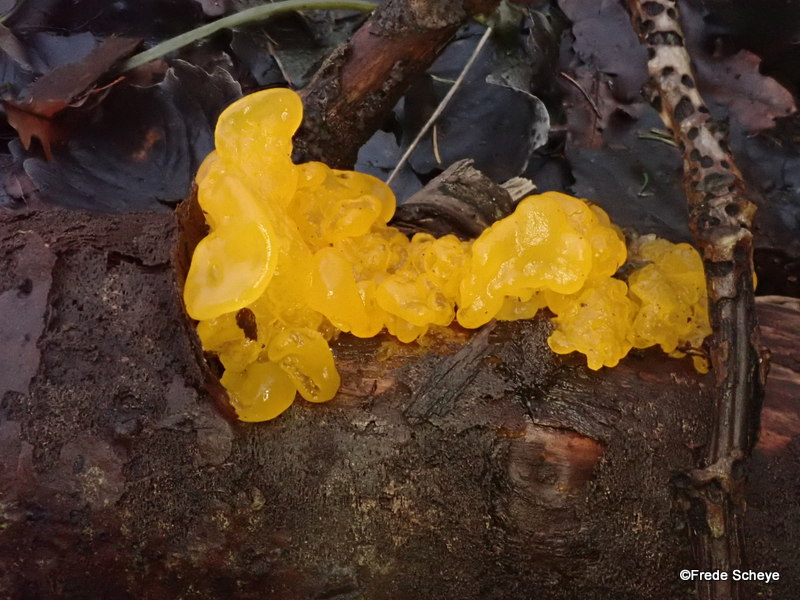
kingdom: Fungi
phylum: Basidiomycota
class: Tremellomycetes
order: Tremellales
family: Tremellaceae
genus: Tremella
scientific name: Tremella mesenterica
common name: gul bævresvamp
